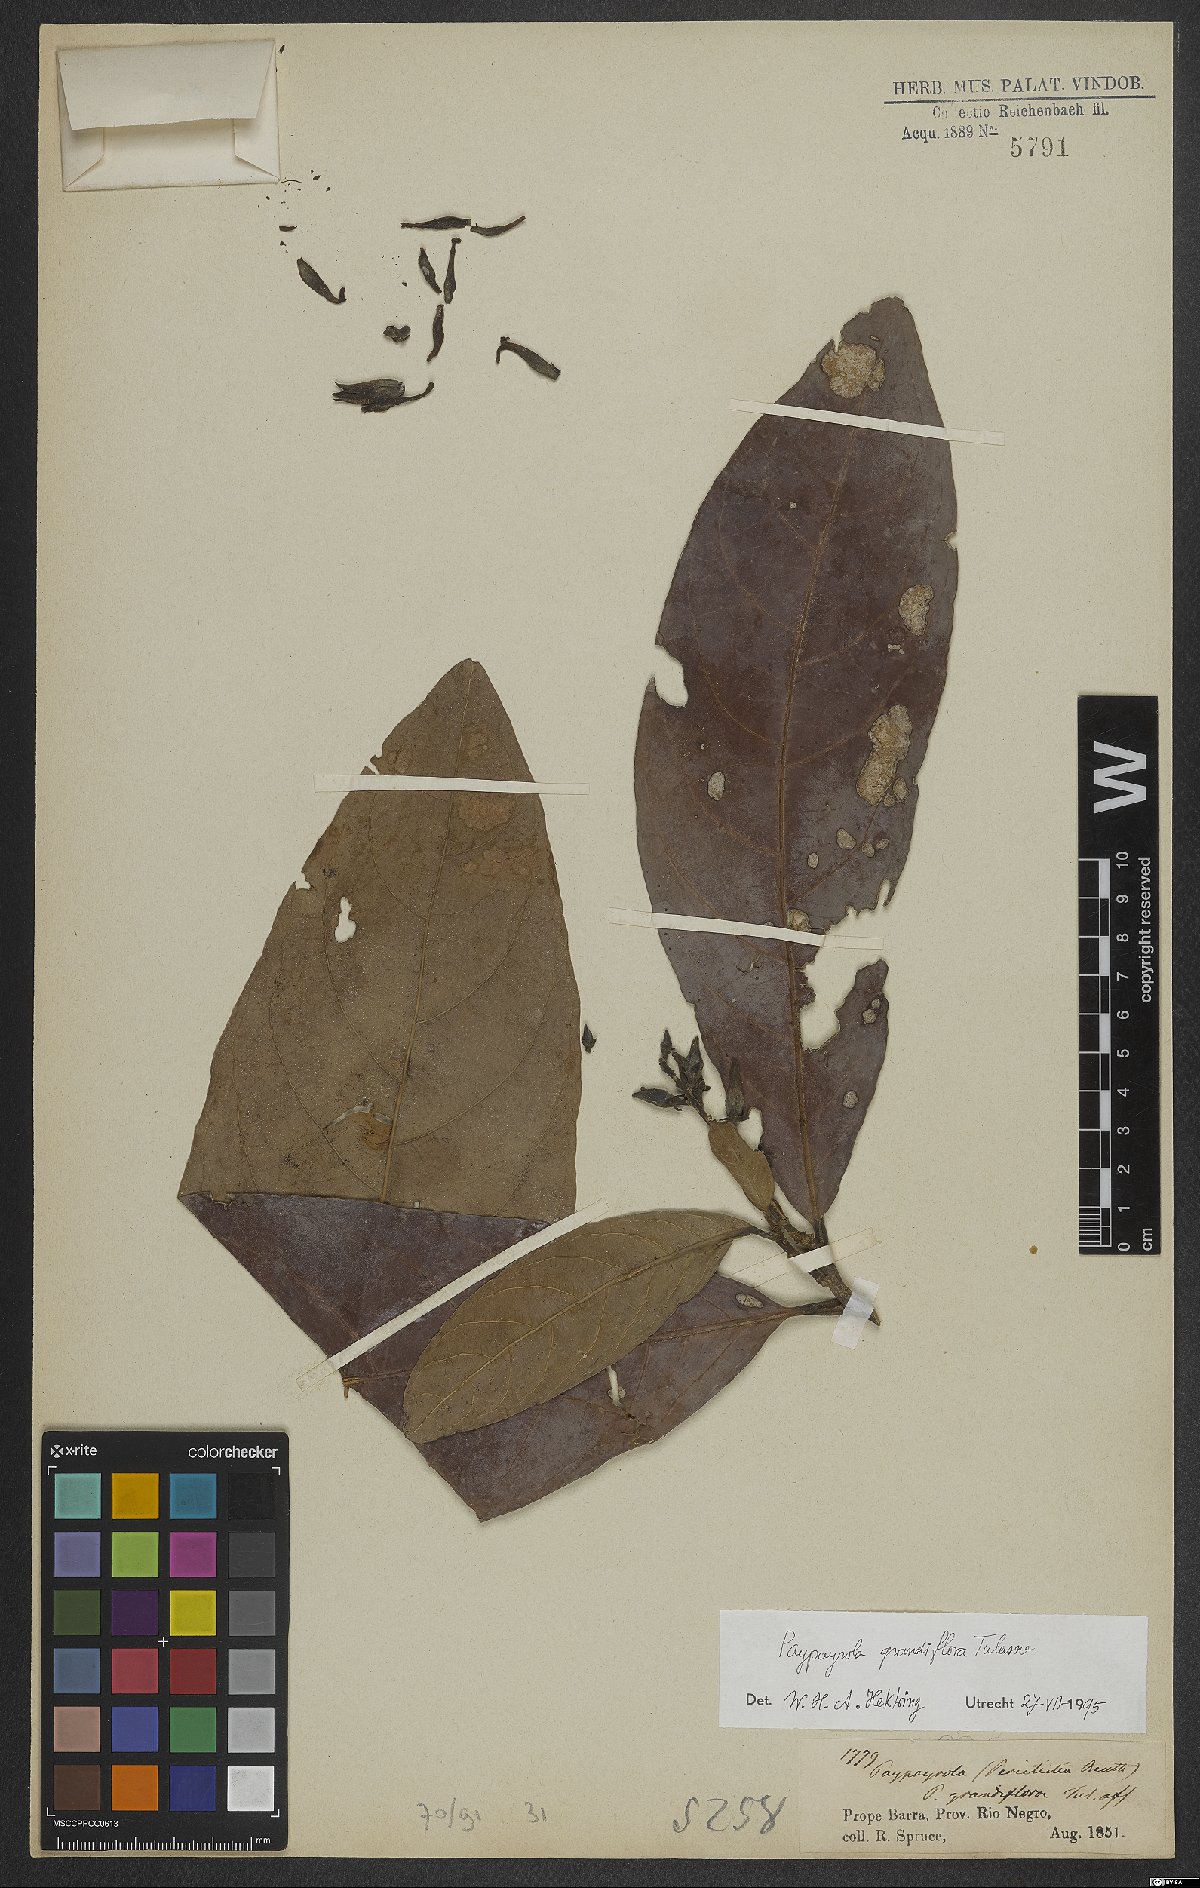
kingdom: Plantae
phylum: Tracheophyta
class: Magnoliopsida
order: Malpighiales
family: Violaceae
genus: Paypayrola
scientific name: Paypayrola grandiflora
